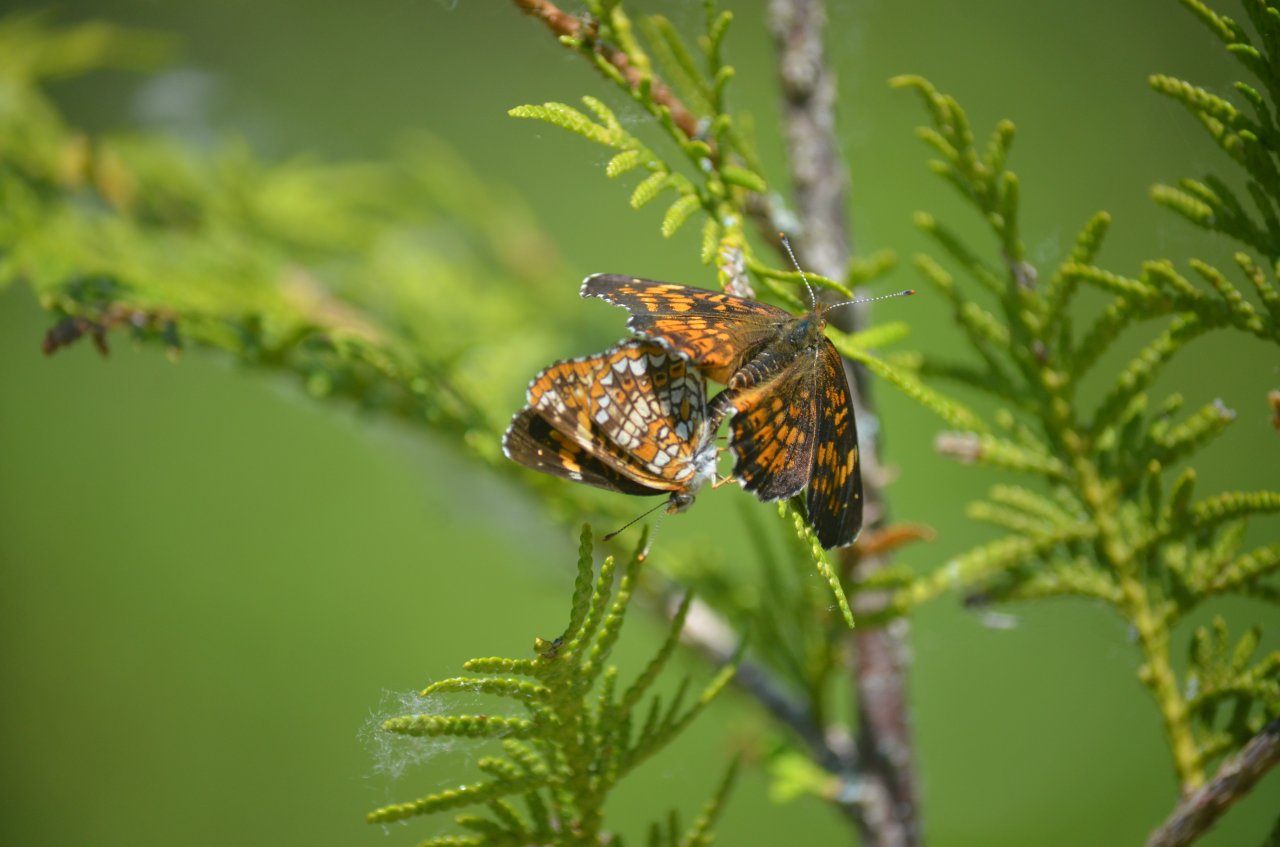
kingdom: Animalia
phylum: Arthropoda
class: Insecta
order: Lepidoptera
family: Nymphalidae
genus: Chlosyne
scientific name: Chlosyne harrisii
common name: Harris's Checkerspot
